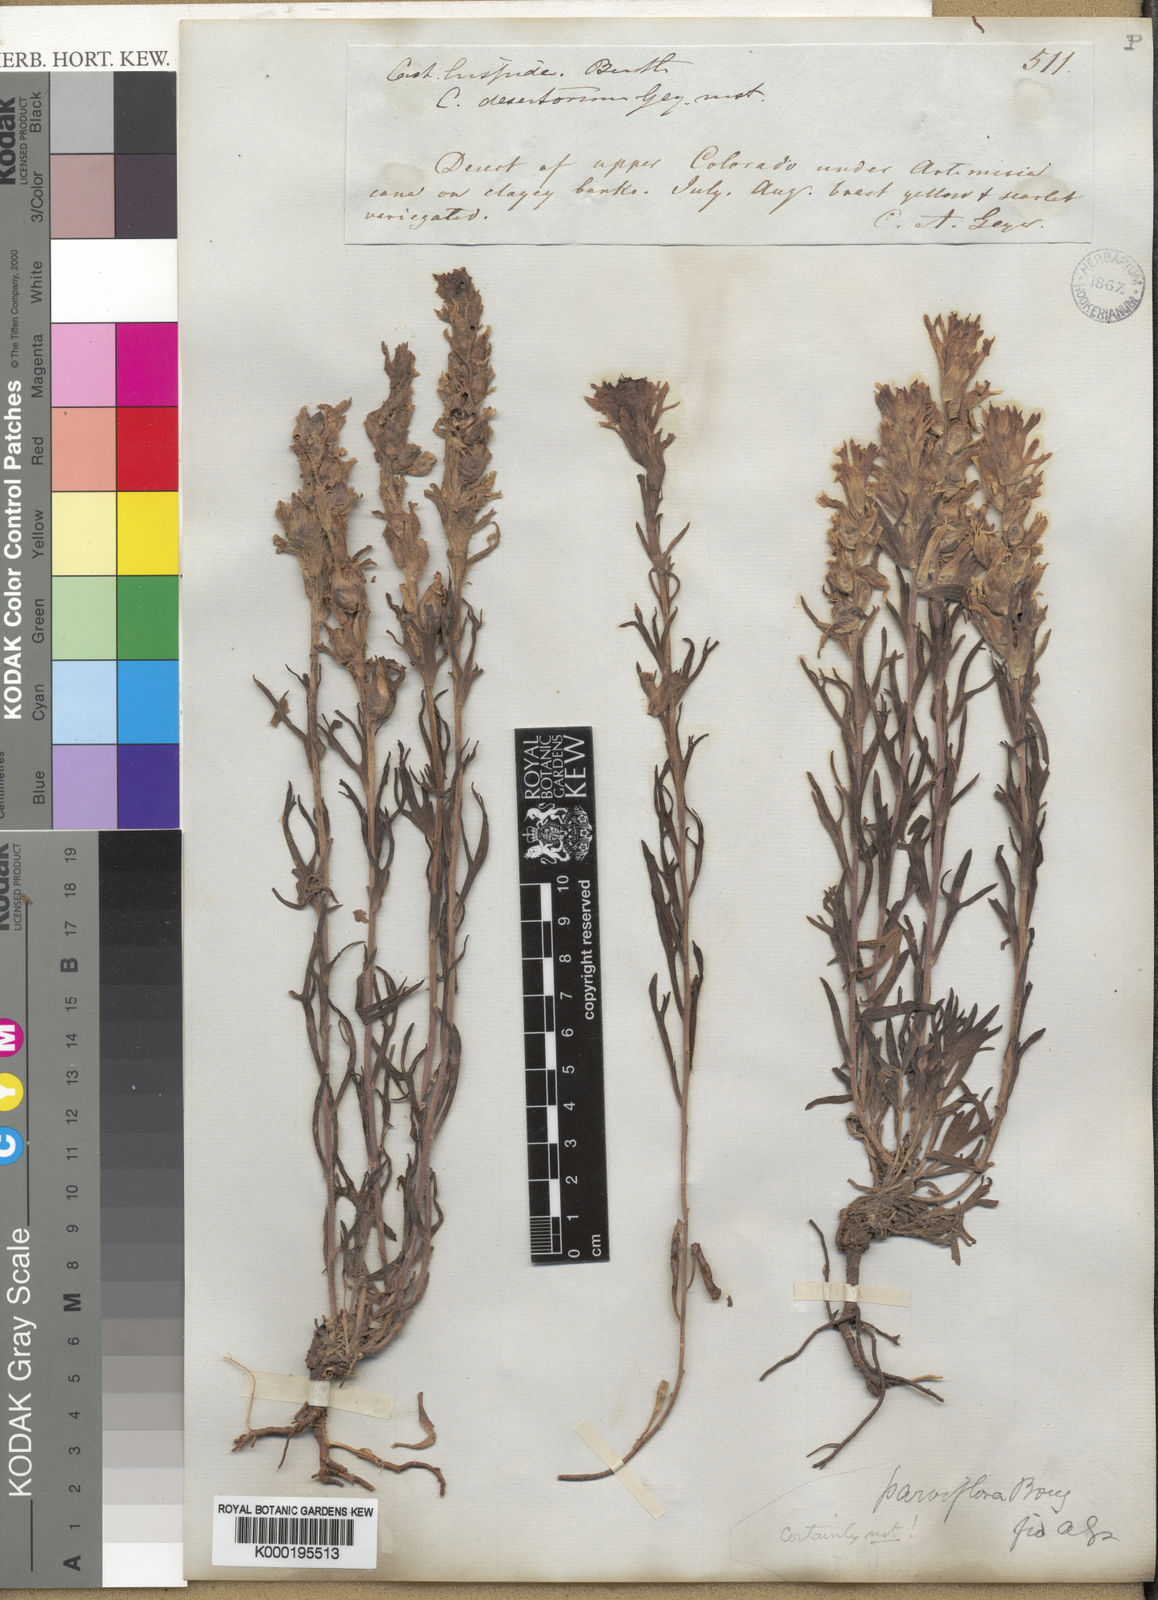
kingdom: Plantae
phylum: Tracheophyta
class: Magnoliopsida
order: Lamiales
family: Orobanchaceae
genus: Castilleja
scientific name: Castilleja chromosa
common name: Desert paintbrush
